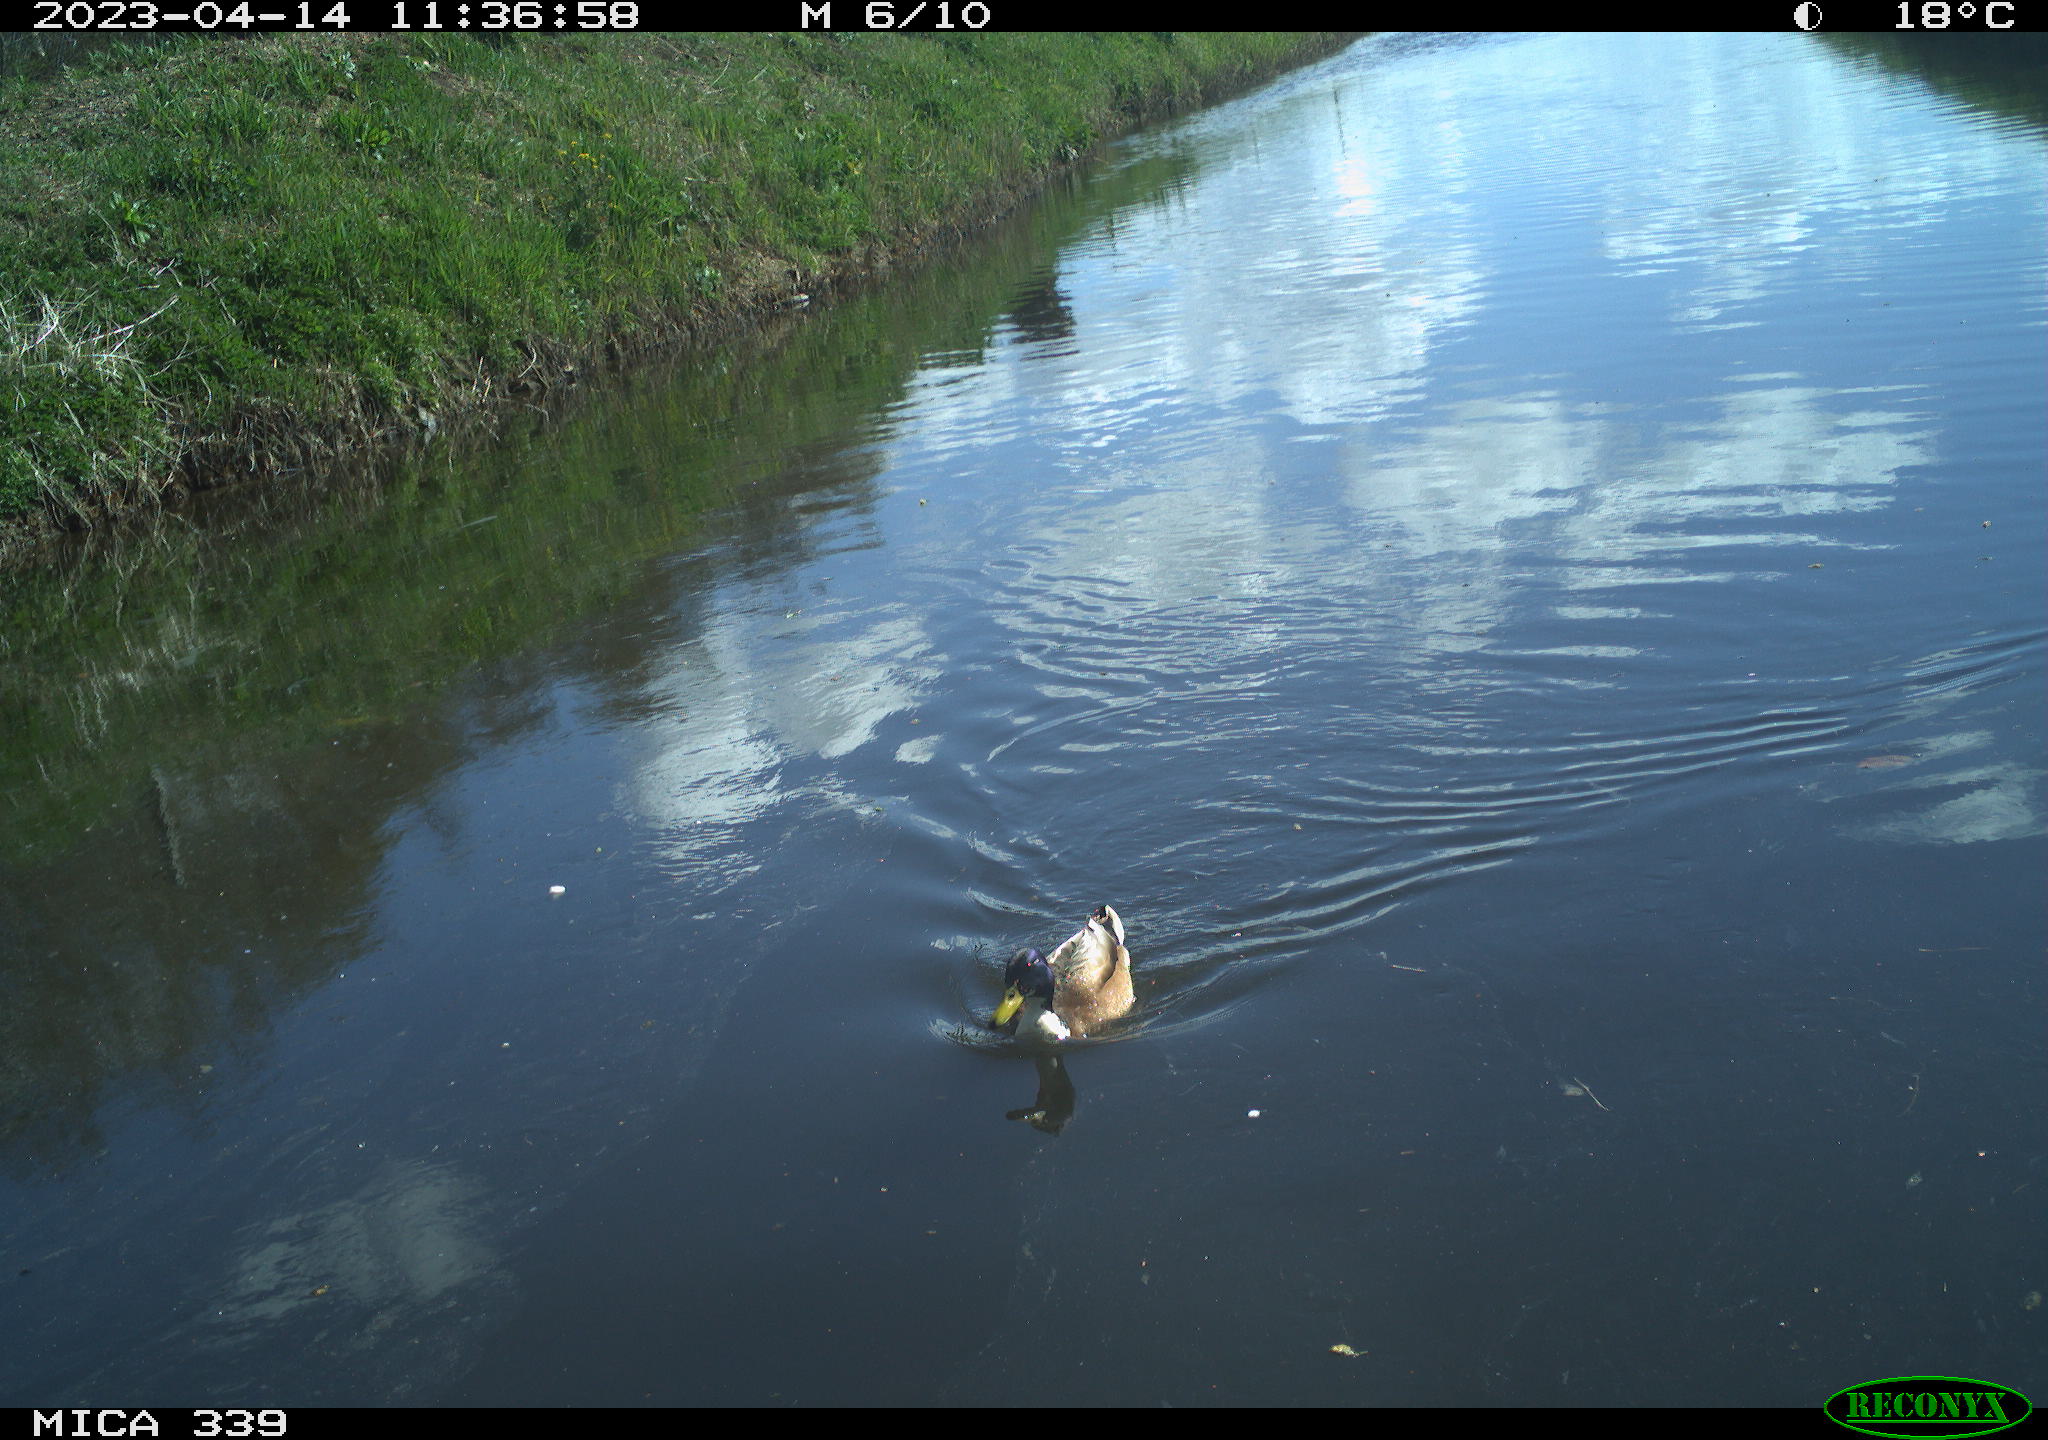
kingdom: Animalia
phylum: Chordata
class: Aves
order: Anseriformes
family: Anatidae
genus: Anas
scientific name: Anas platyrhynchos
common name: Mallard
